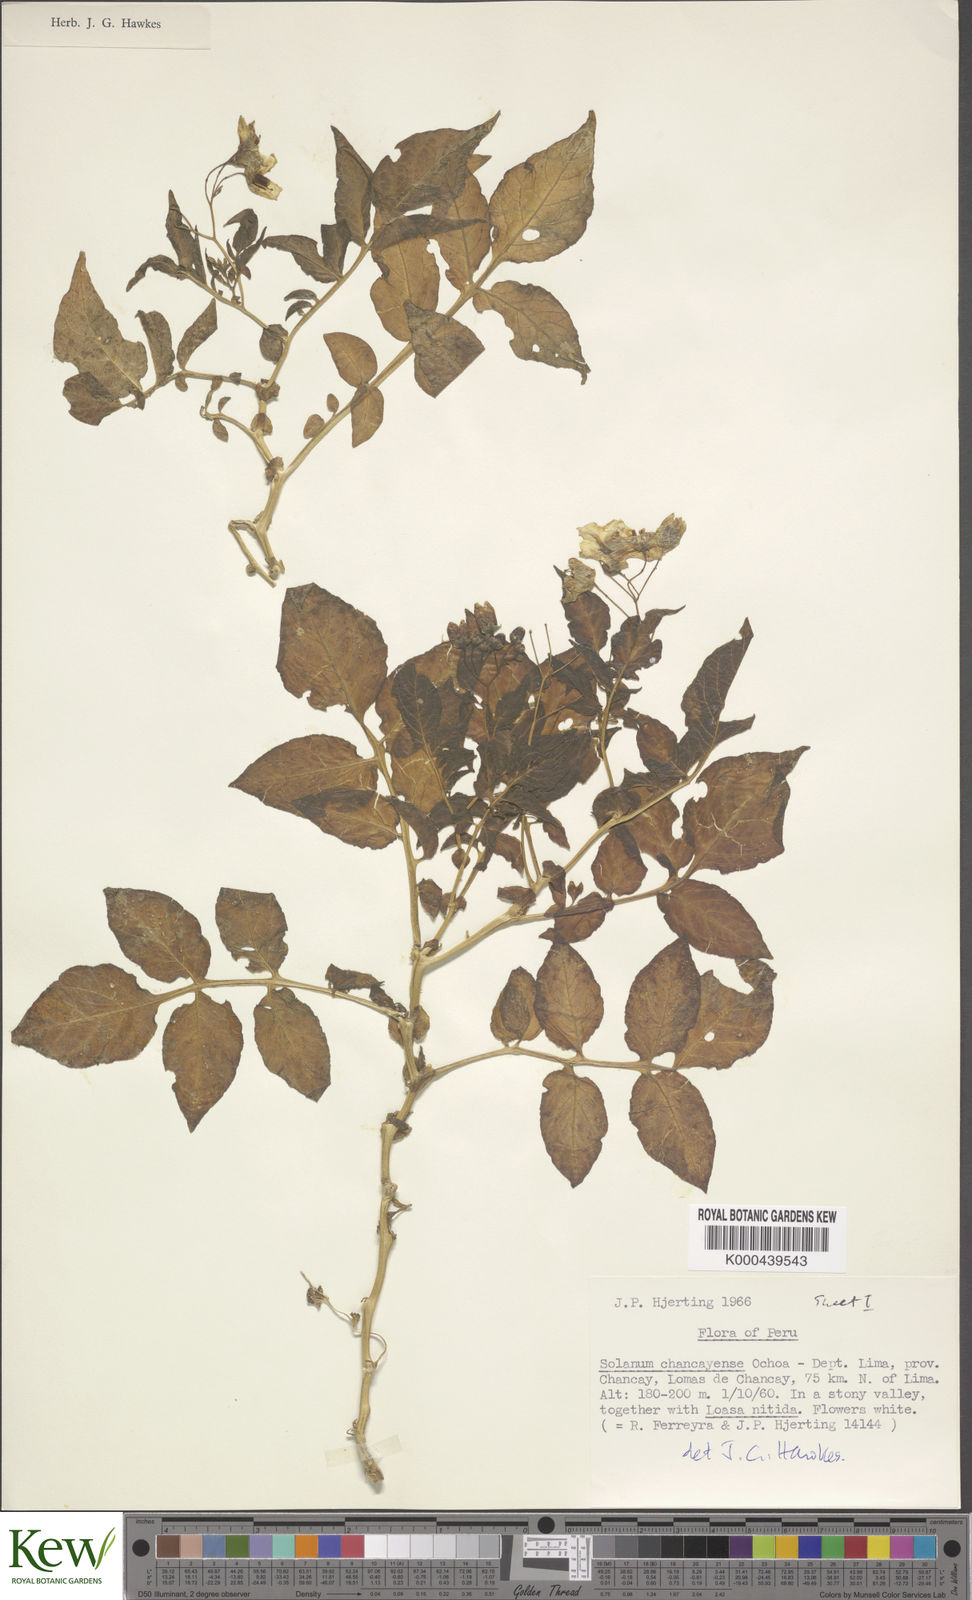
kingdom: Plantae
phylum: Tracheophyta
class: Magnoliopsida
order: Solanales
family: Solanaceae
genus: Solanum
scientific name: Solanum mochiquense
